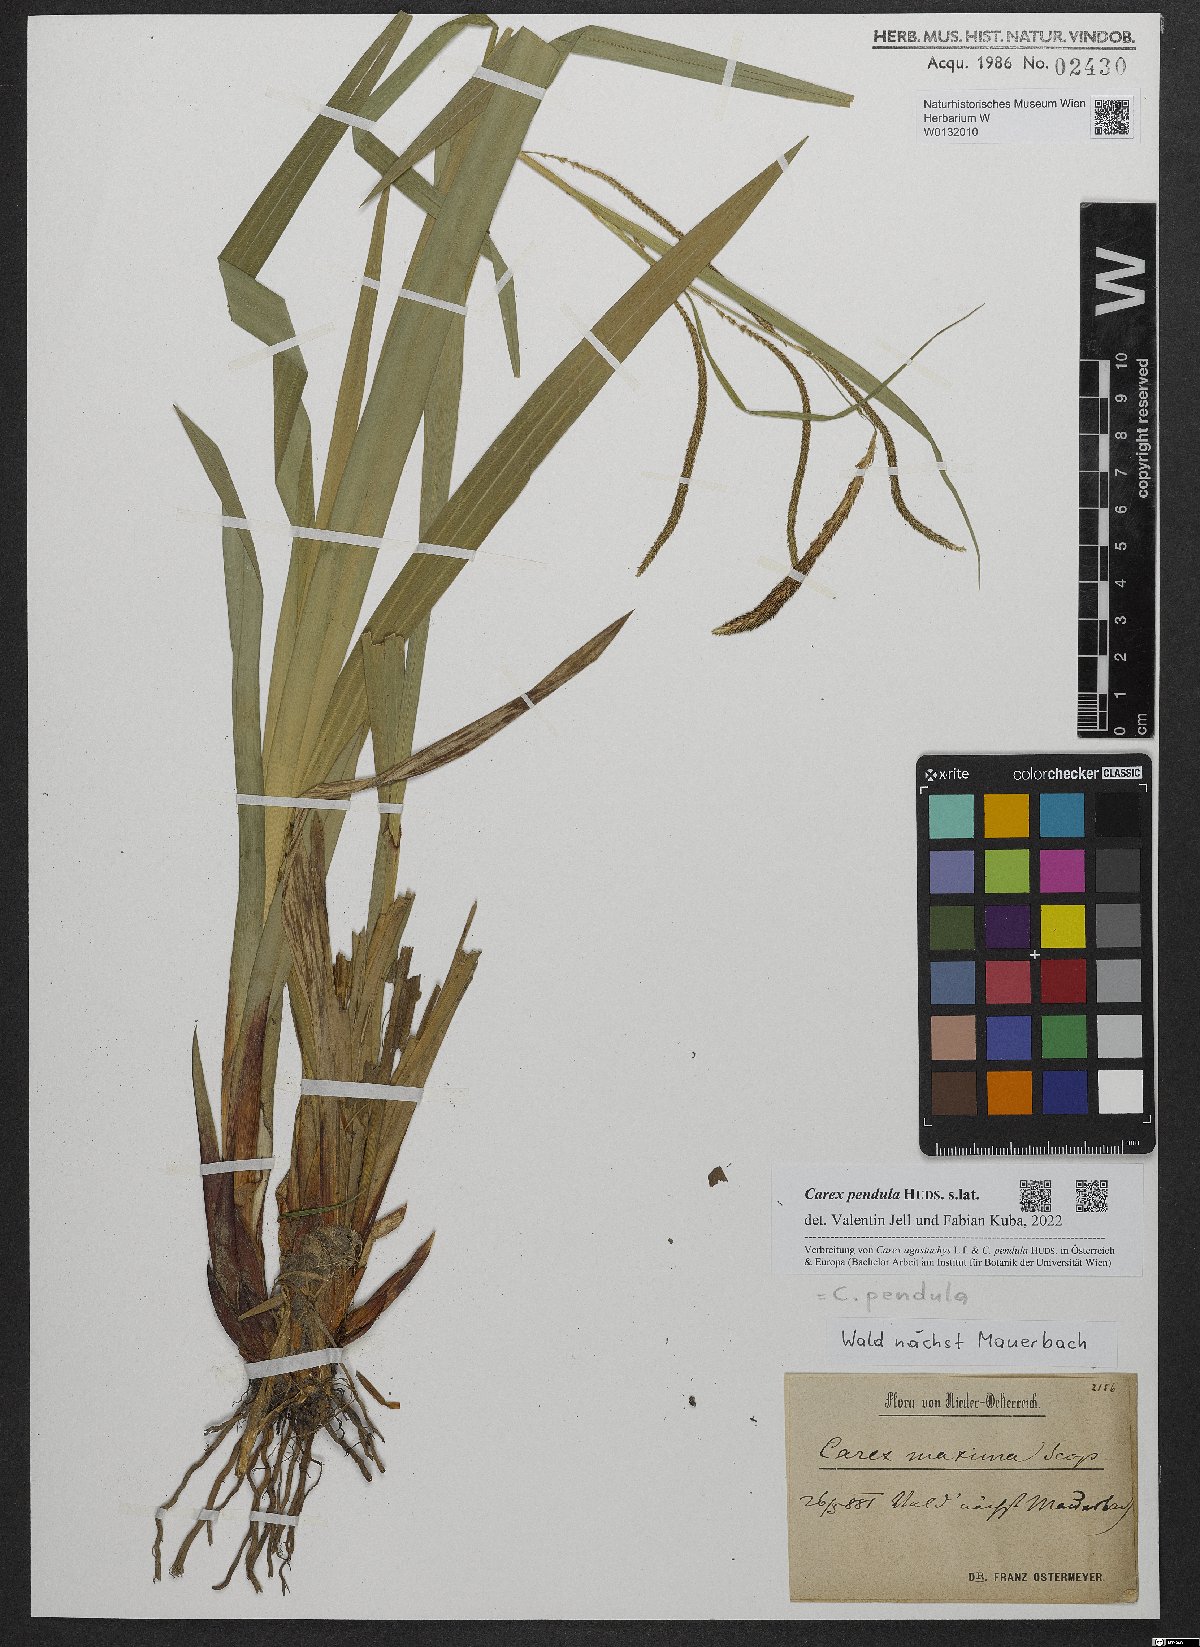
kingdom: Plantae
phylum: Tracheophyta
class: Liliopsida
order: Poales
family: Cyperaceae
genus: Carex
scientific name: Carex pendula
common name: Pendulous sedge
